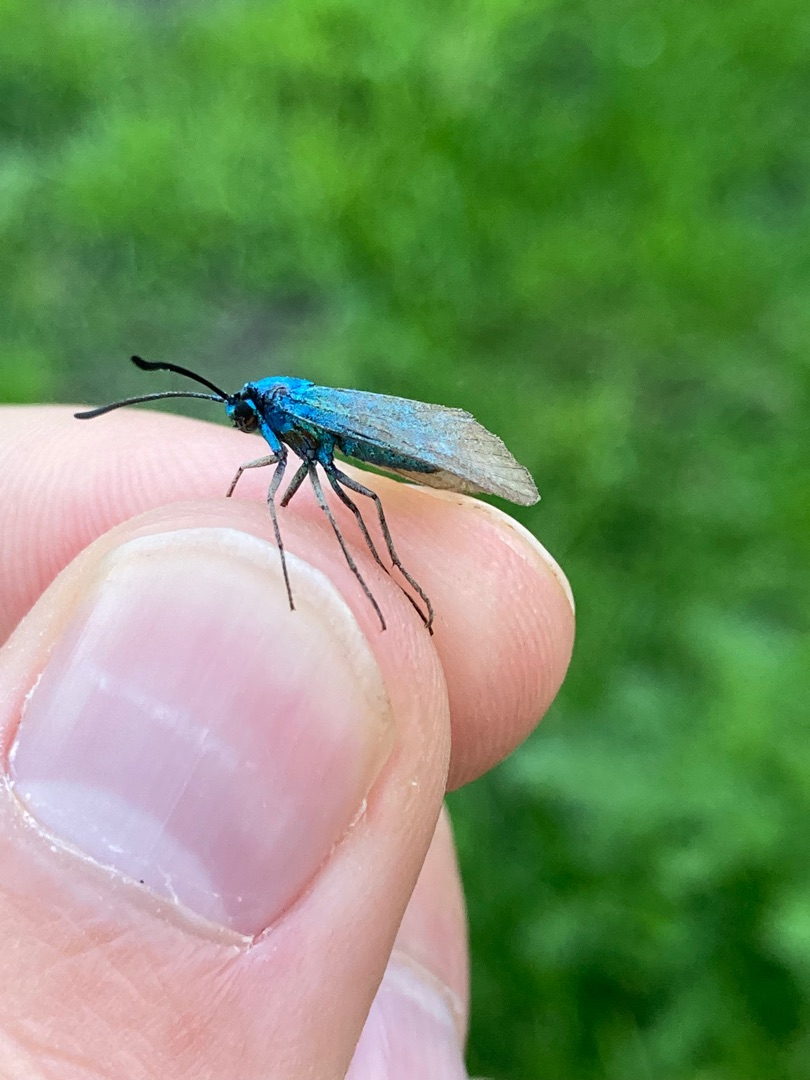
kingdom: Animalia
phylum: Arthropoda
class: Insecta
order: Lepidoptera
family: Zygaenidae
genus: Adscita
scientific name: Adscita statices
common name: Metalvinge
